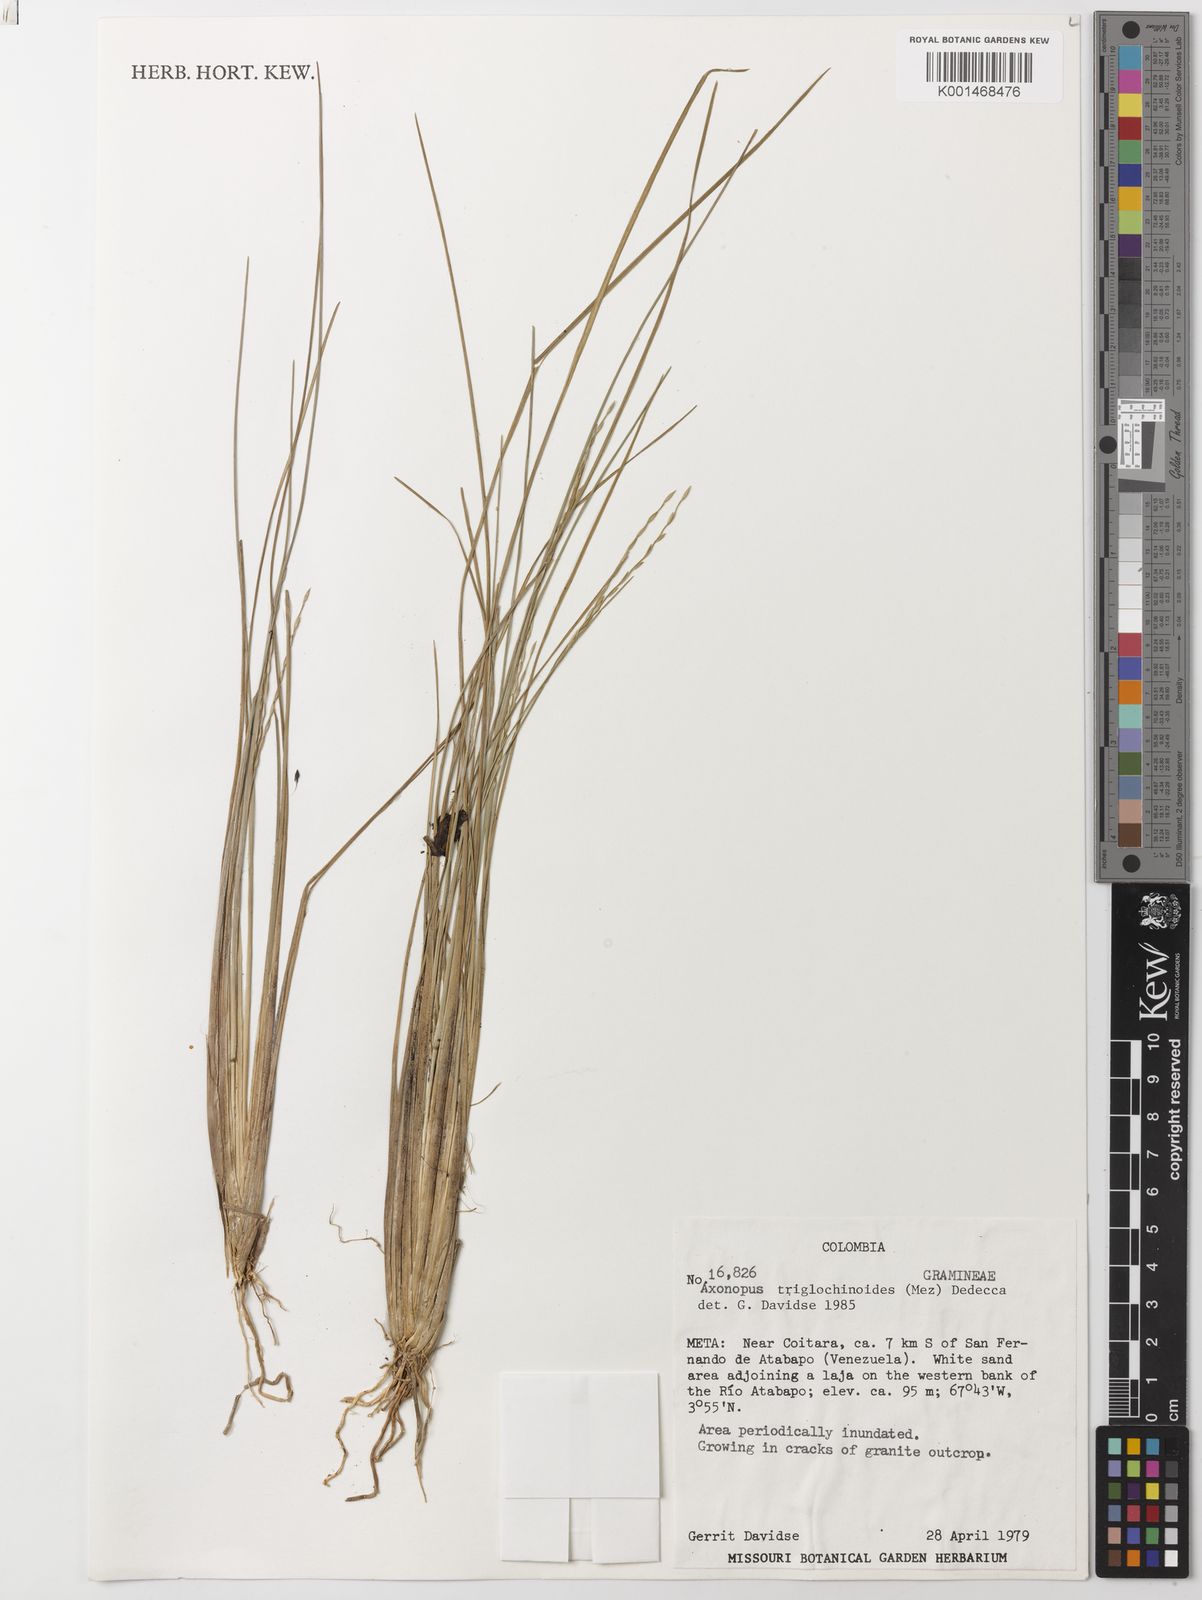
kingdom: Plantae
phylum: Tracheophyta
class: Liliopsida
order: Poales
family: Poaceae
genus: Axonopus
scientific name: Axonopus triglochinoides
